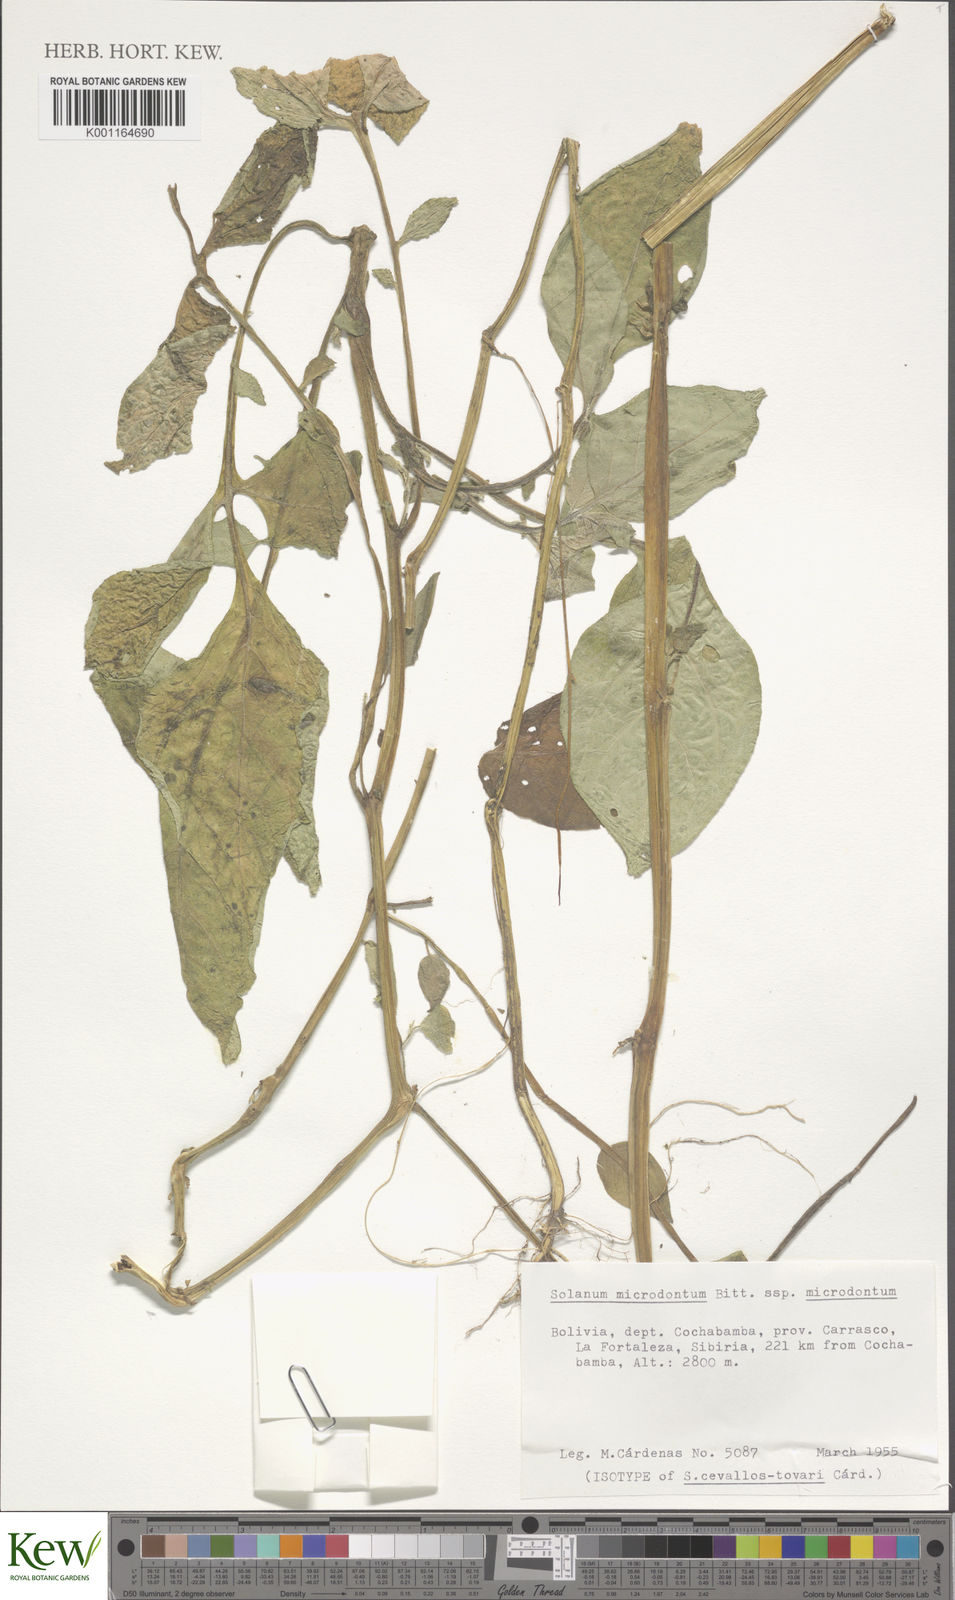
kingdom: Plantae
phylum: Tracheophyta
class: Magnoliopsida
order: Solanales
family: Solanaceae
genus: Solanum
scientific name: Solanum microdontum
